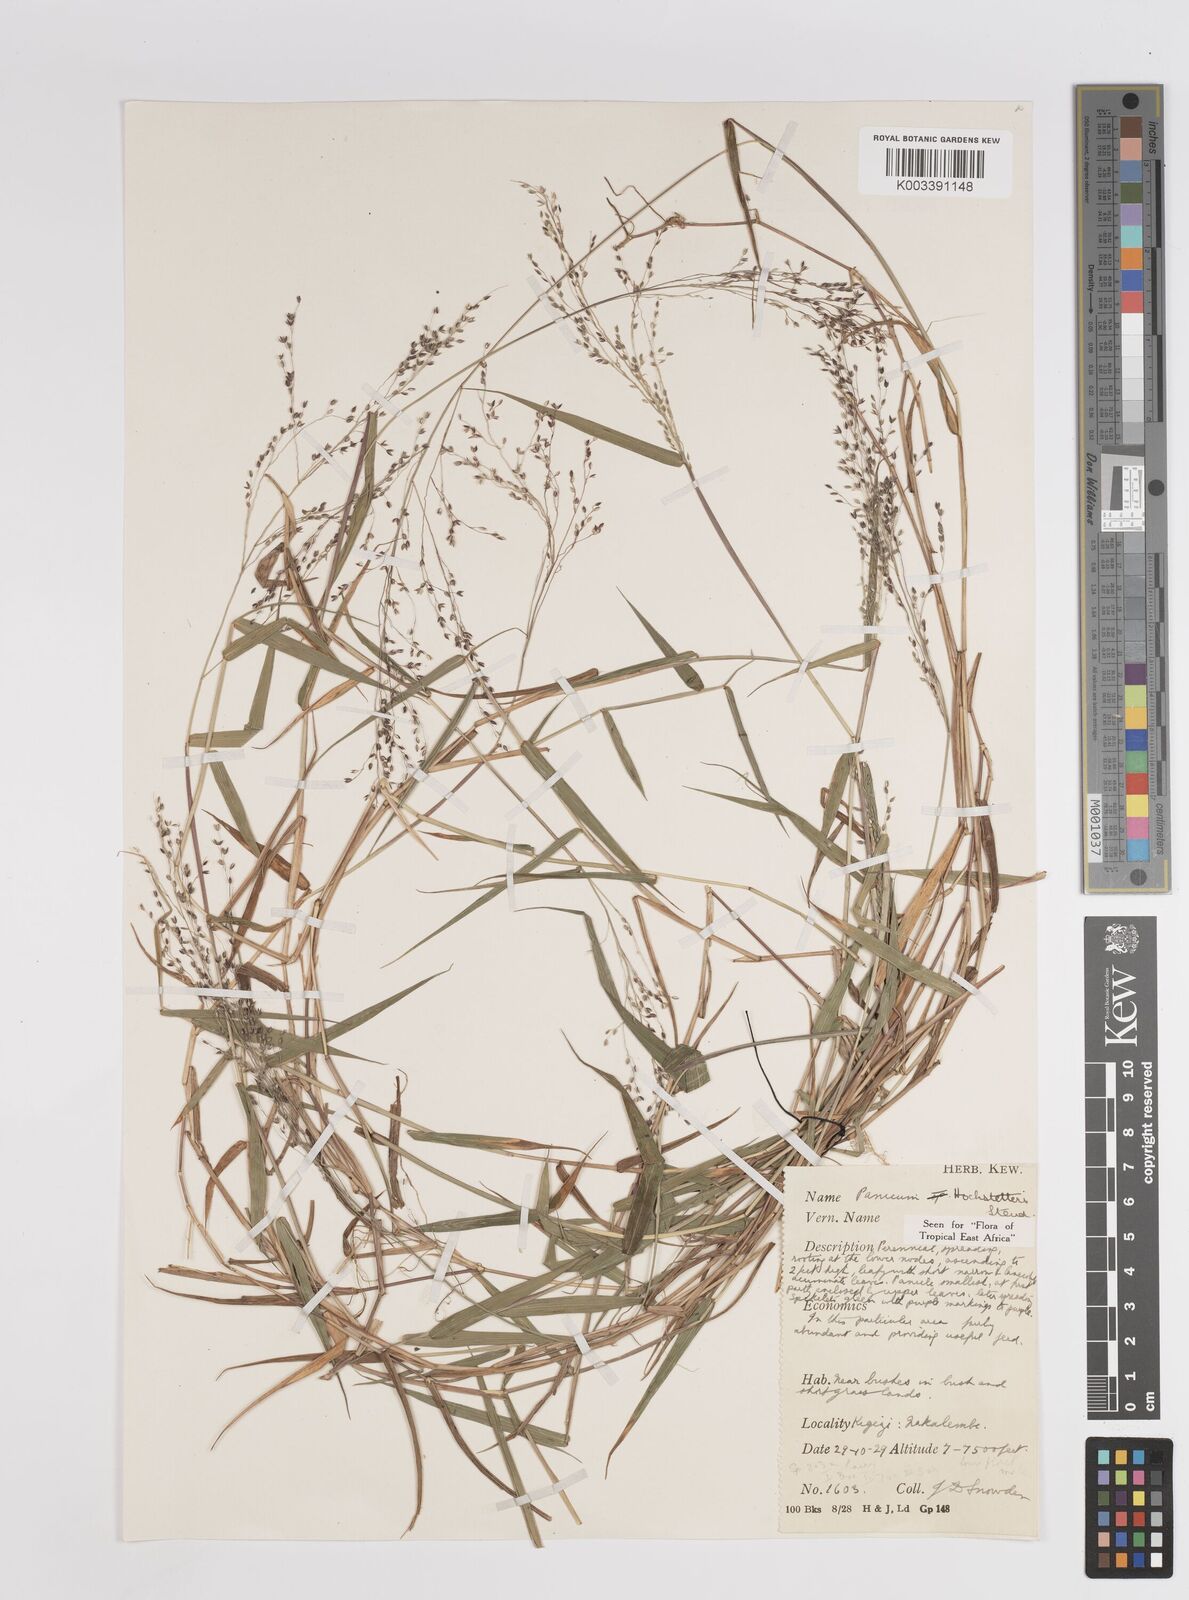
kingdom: Plantae
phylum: Tracheophyta
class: Liliopsida
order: Poales
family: Poaceae
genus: Panicum
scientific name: Panicum hochstetteri
